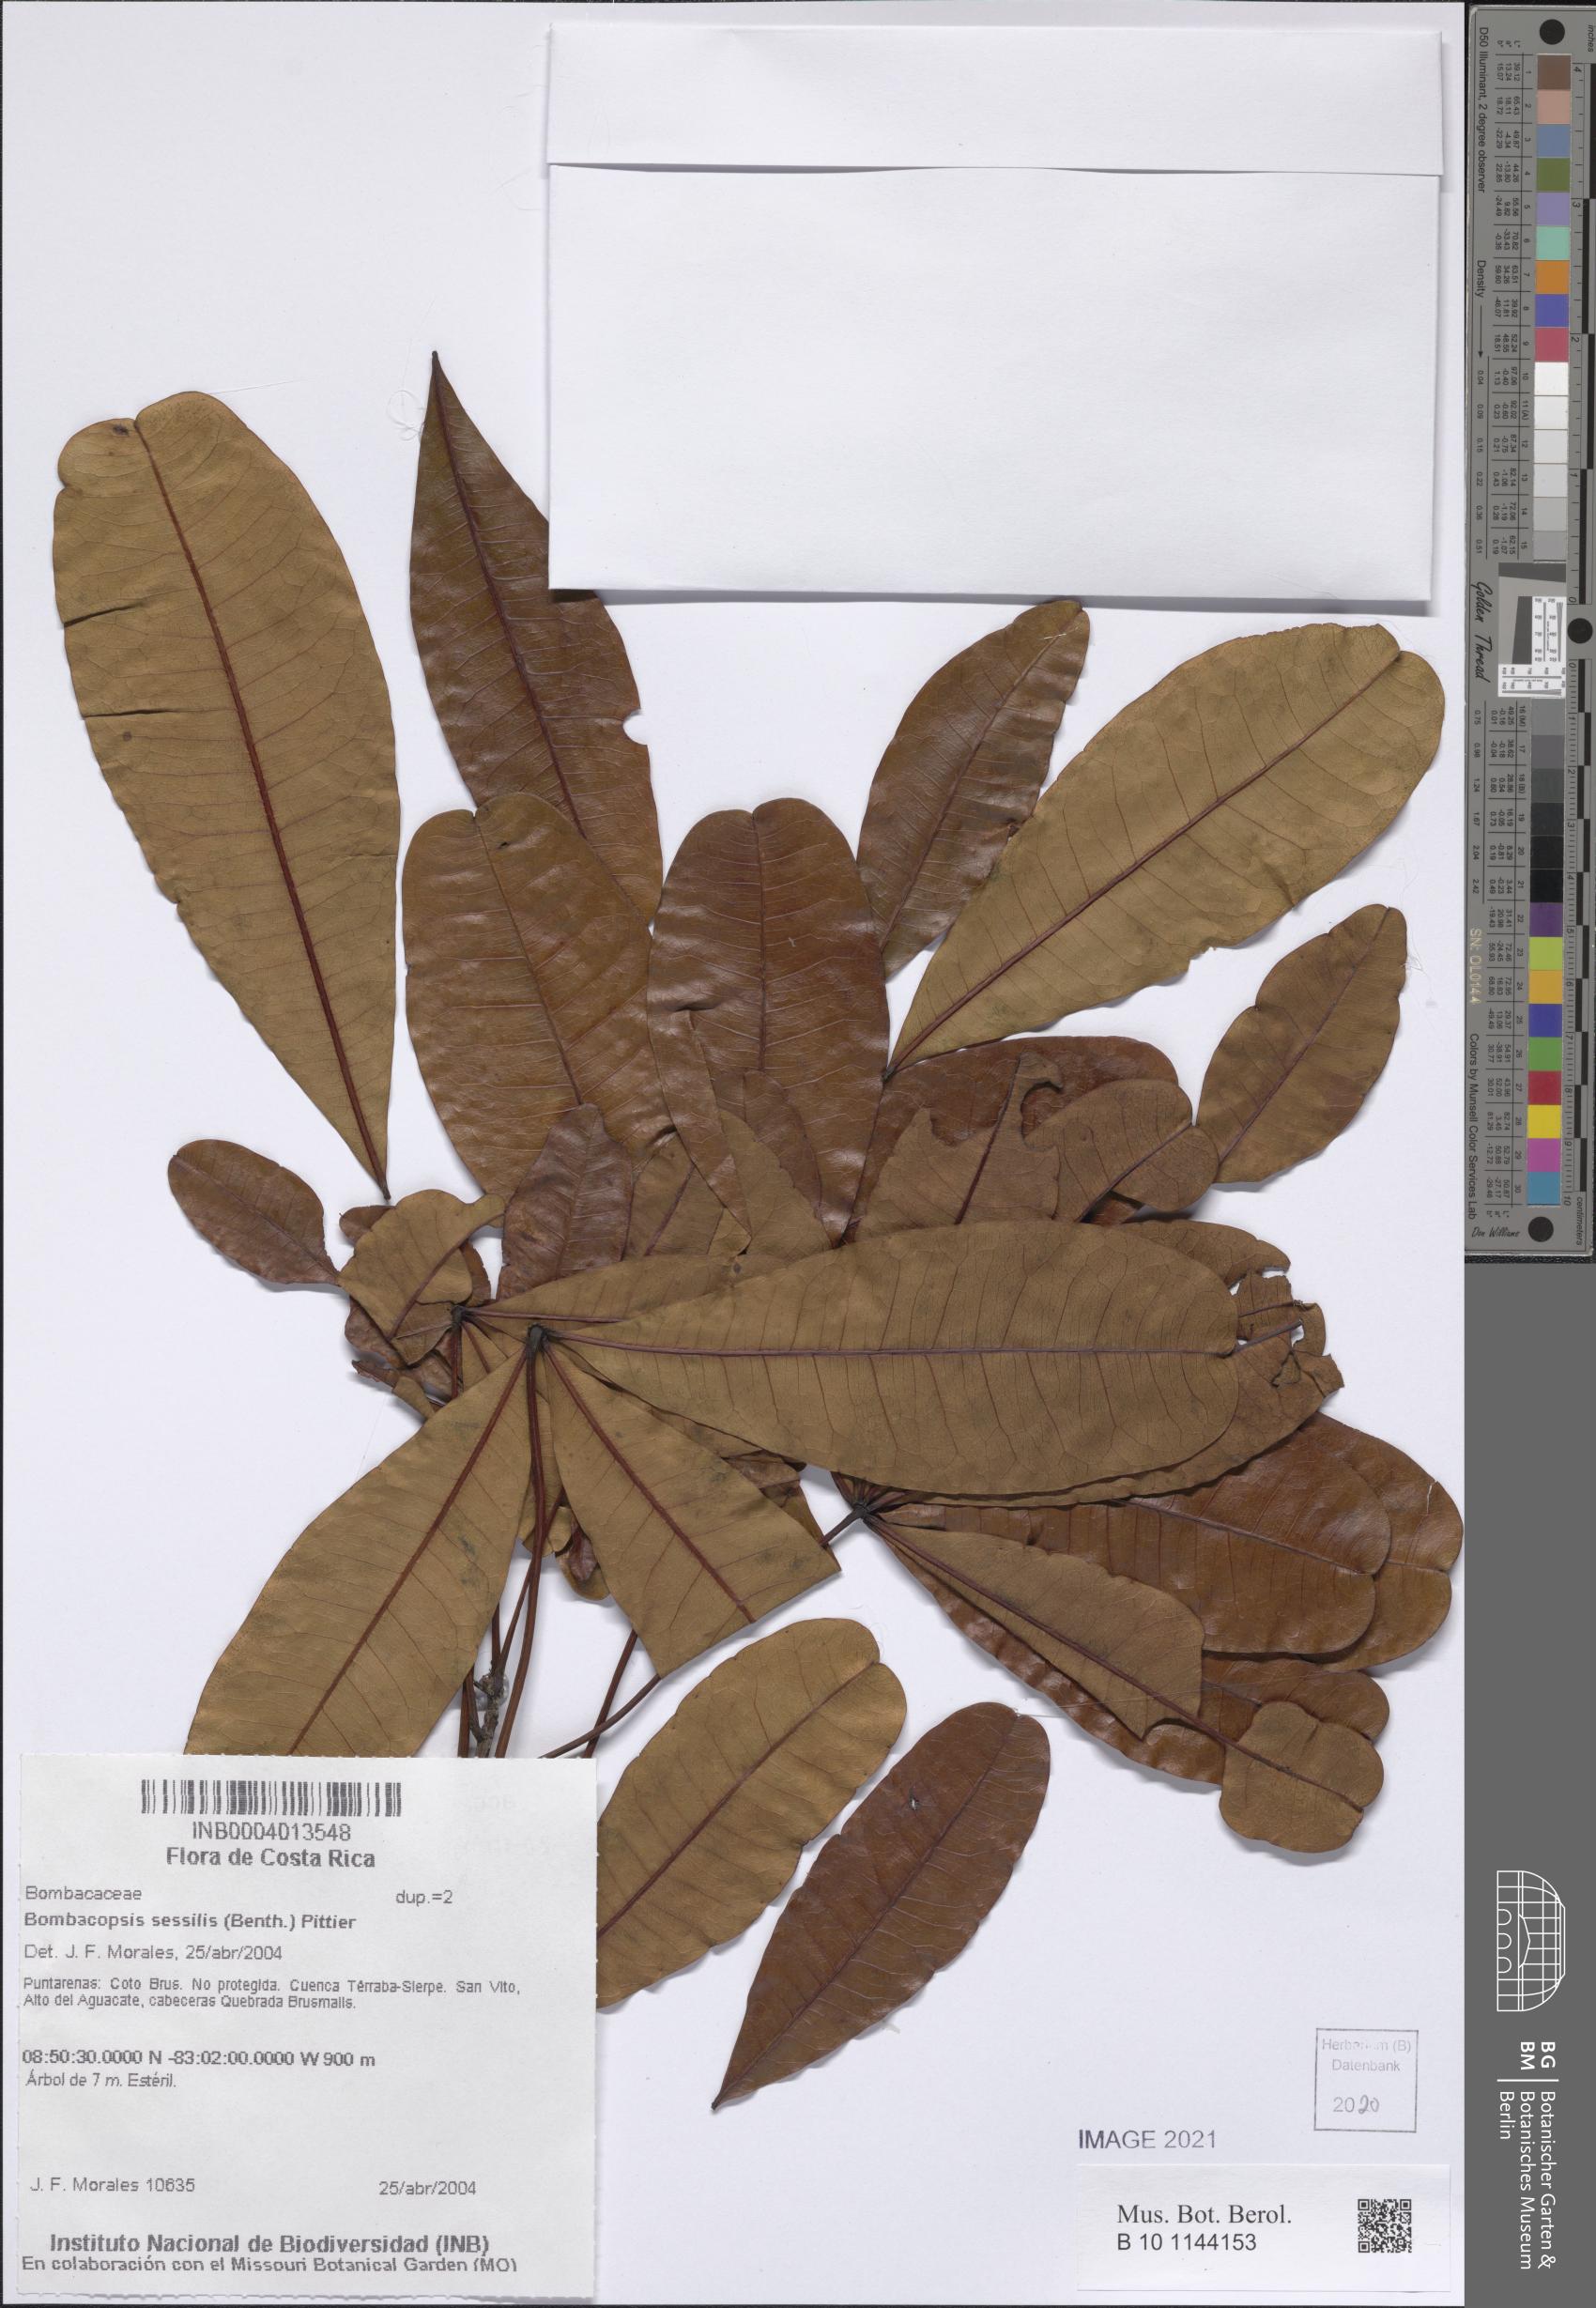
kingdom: Plantae
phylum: Tracheophyta
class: Magnoliopsida
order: Malvales
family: Malvaceae
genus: Pachira
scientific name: Pachira sessilis
